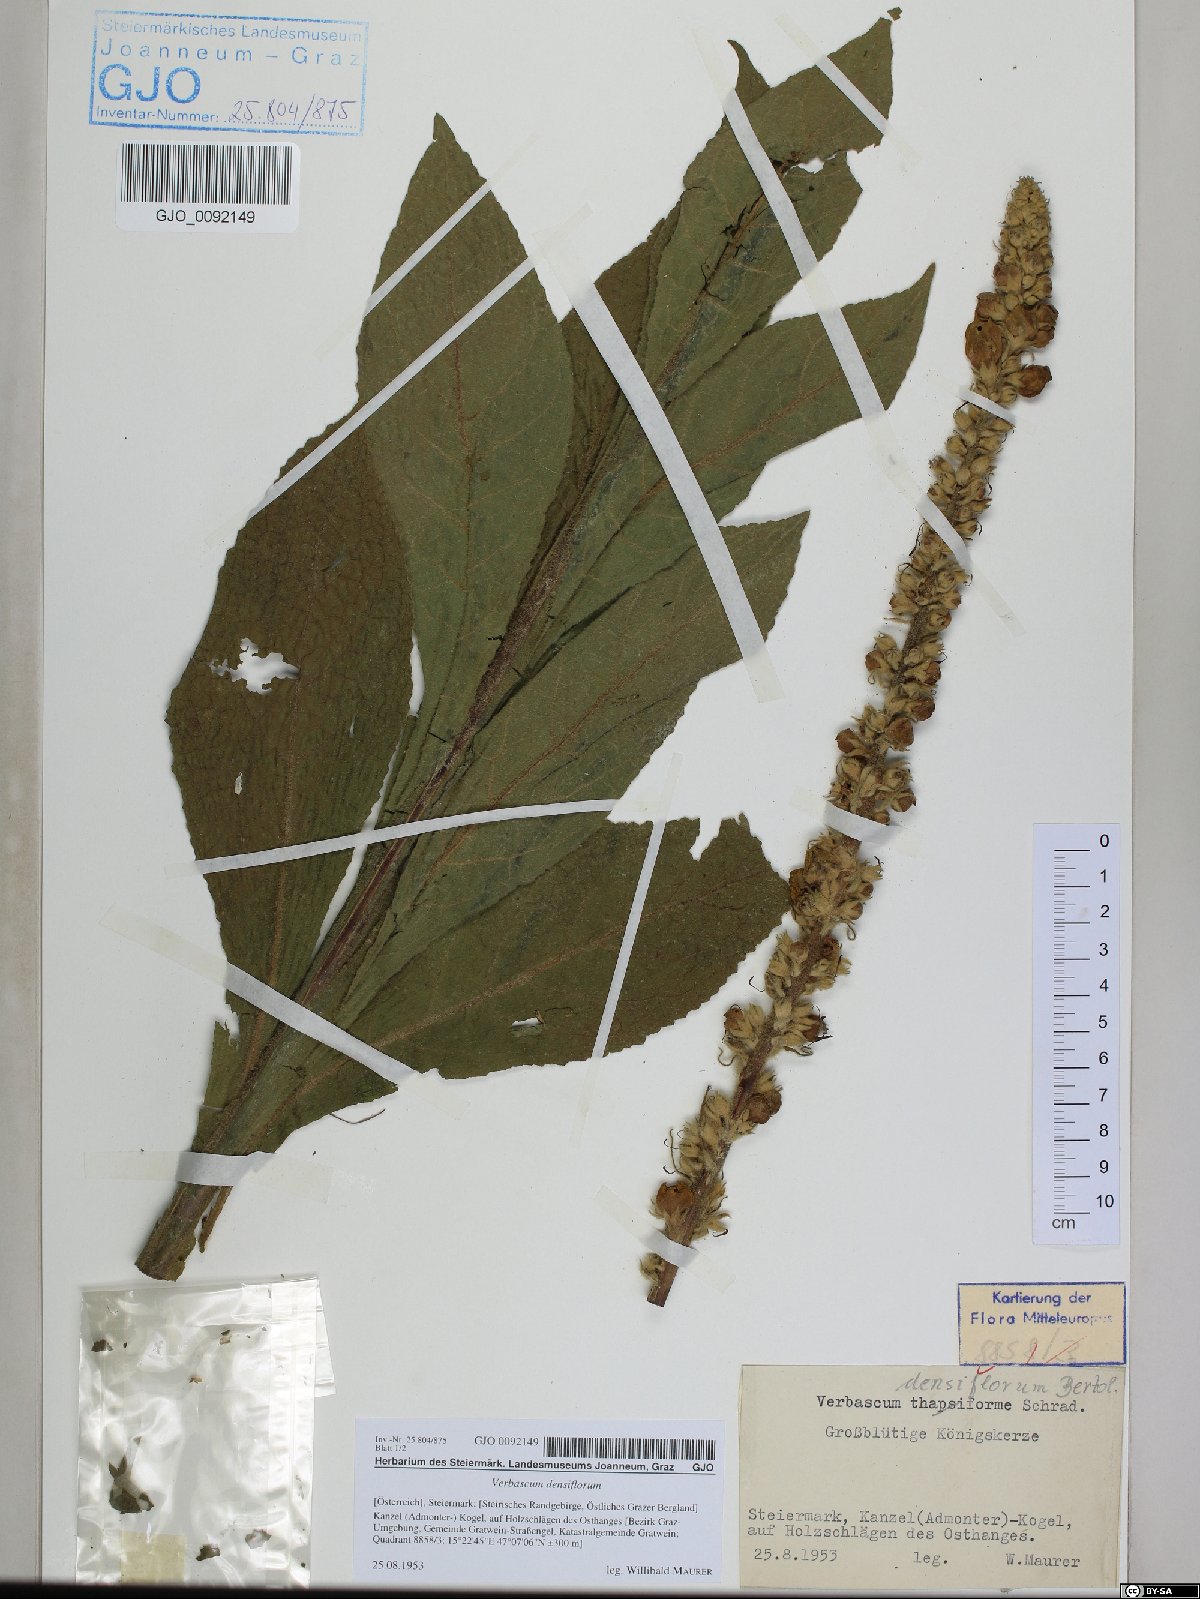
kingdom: Plantae
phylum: Tracheophyta
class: Magnoliopsida
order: Lamiales
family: Scrophulariaceae
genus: Verbascum
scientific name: Verbascum densiflorum
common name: Dense-flowered mullein
